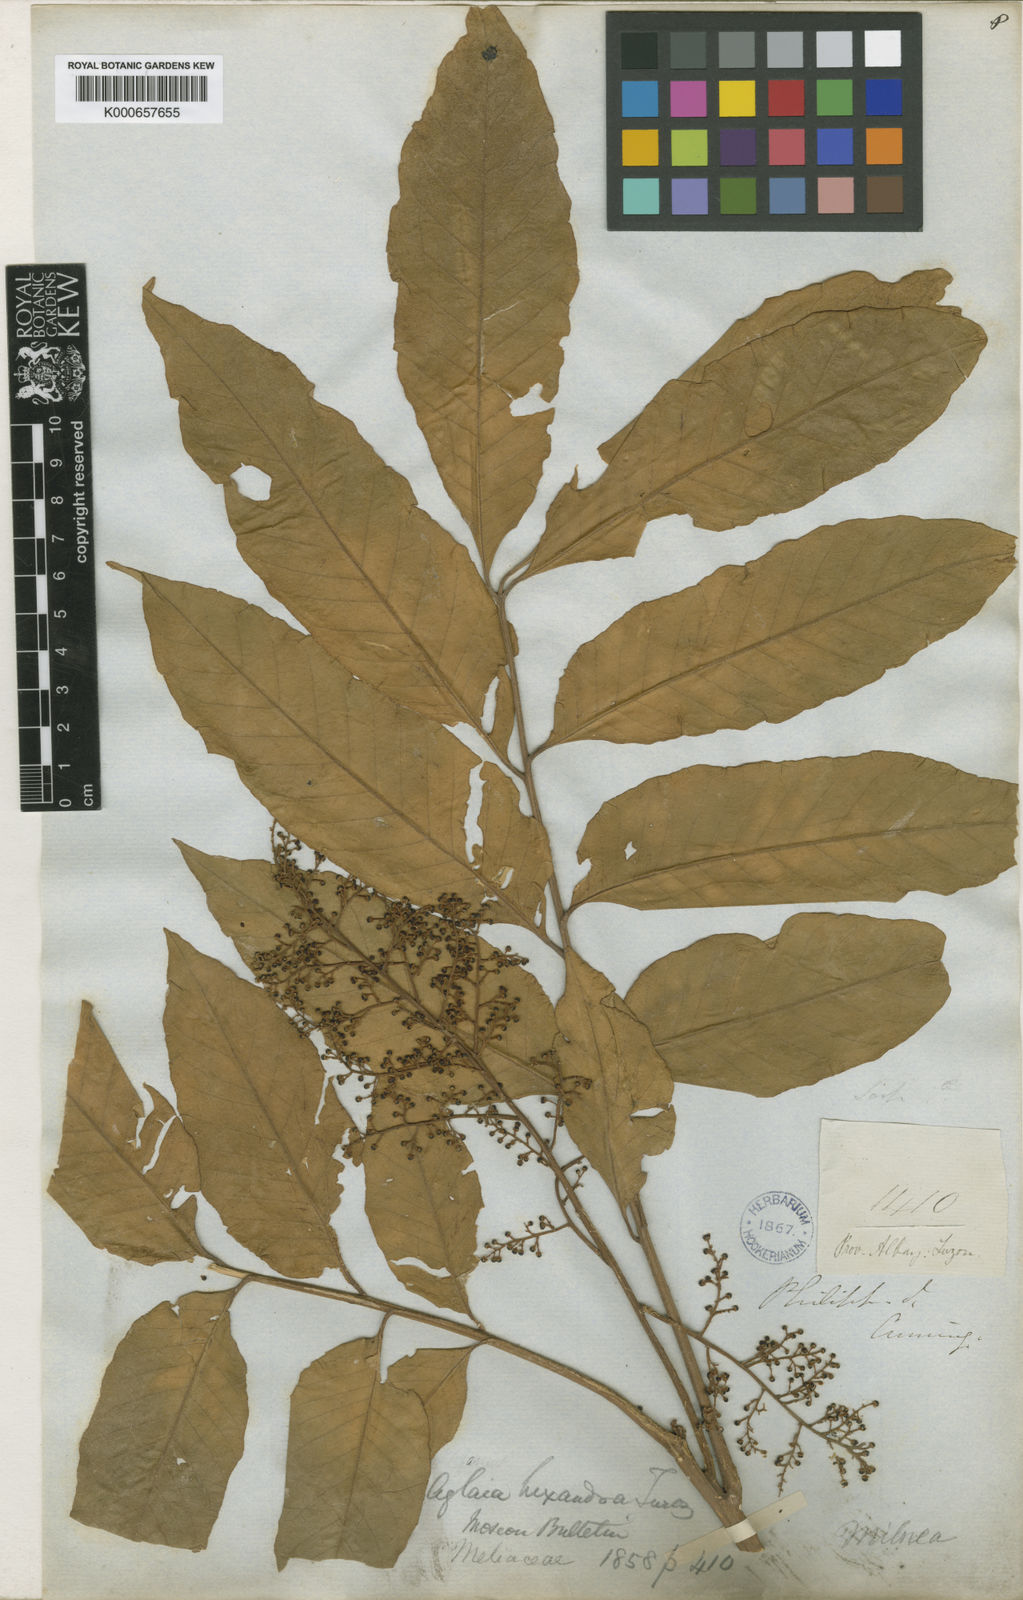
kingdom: Plantae
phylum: Tracheophyta
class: Magnoliopsida
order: Sapindales
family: Meliaceae
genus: Aglaia
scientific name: Aglaia rimosa
